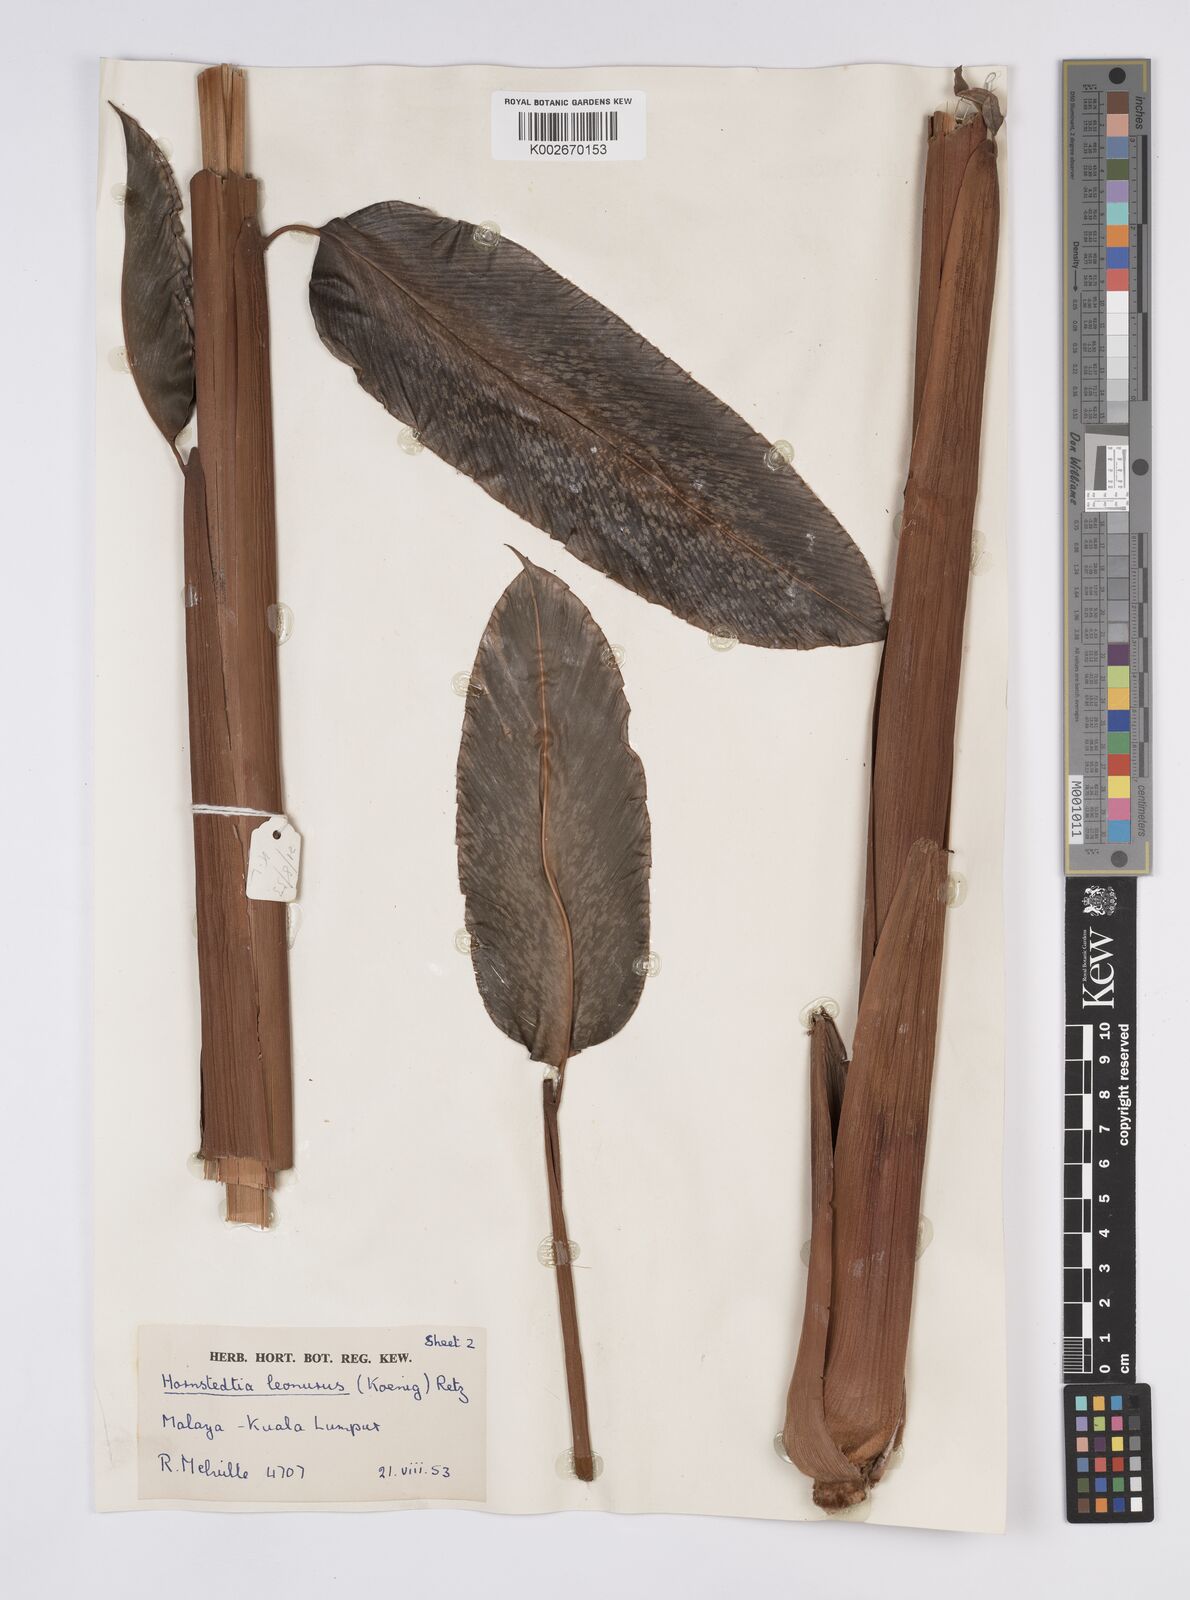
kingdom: Plantae
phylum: Tracheophyta
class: Liliopsida
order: Zingiberales
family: Zingiberaceae
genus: Hornstedtia
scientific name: Hornstedtia leonurus
